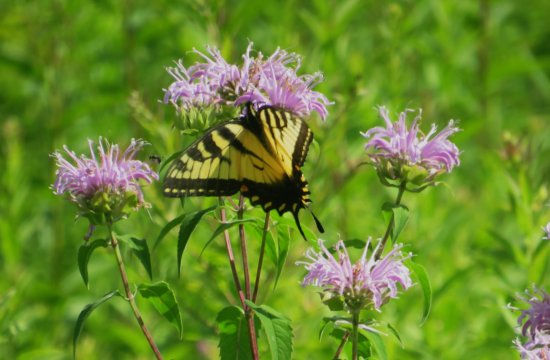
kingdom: Animalia
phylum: Arthropoda
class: Insecta
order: Lepidoptera
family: Papilionidae
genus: Pterourus
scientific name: Pterourus glaucus
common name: Eastern Tiger Swallowtail
